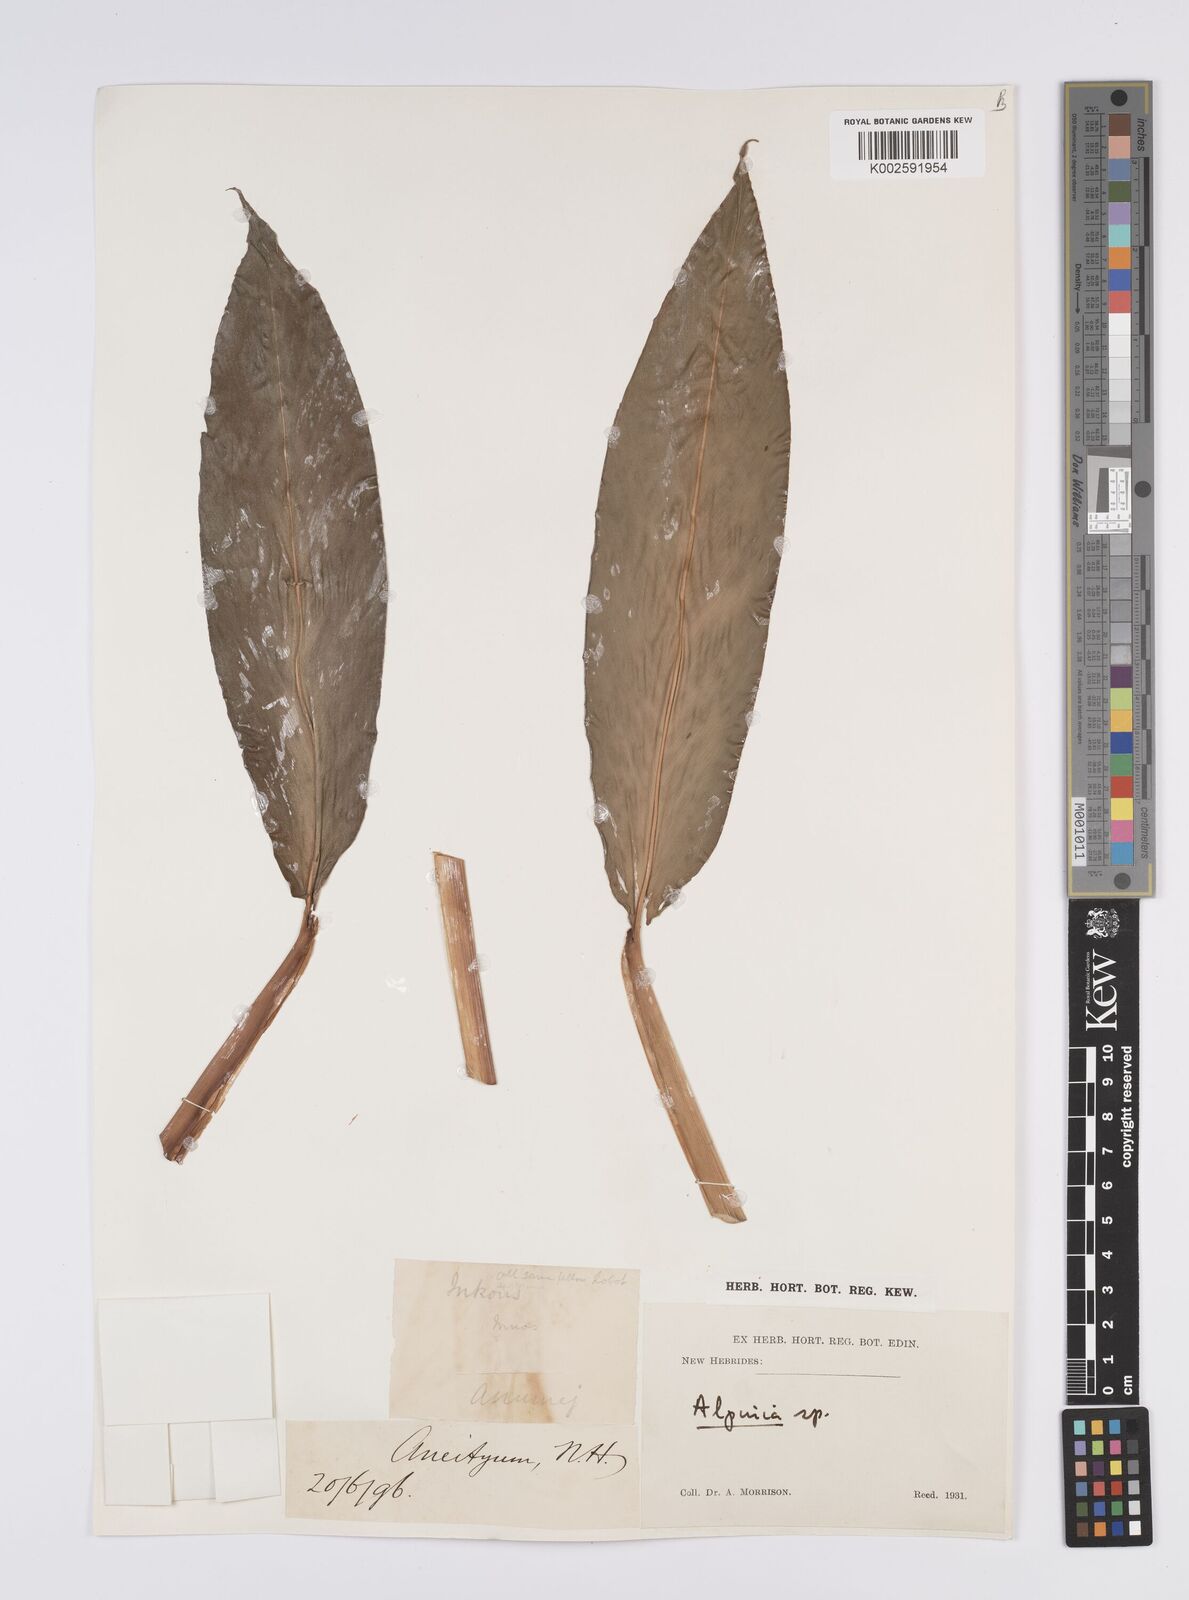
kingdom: Plantae
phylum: Tracheophyta
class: Liliopsida
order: Zingiberales
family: Zingiberaceae
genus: Alpinia
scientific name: Alpinia
